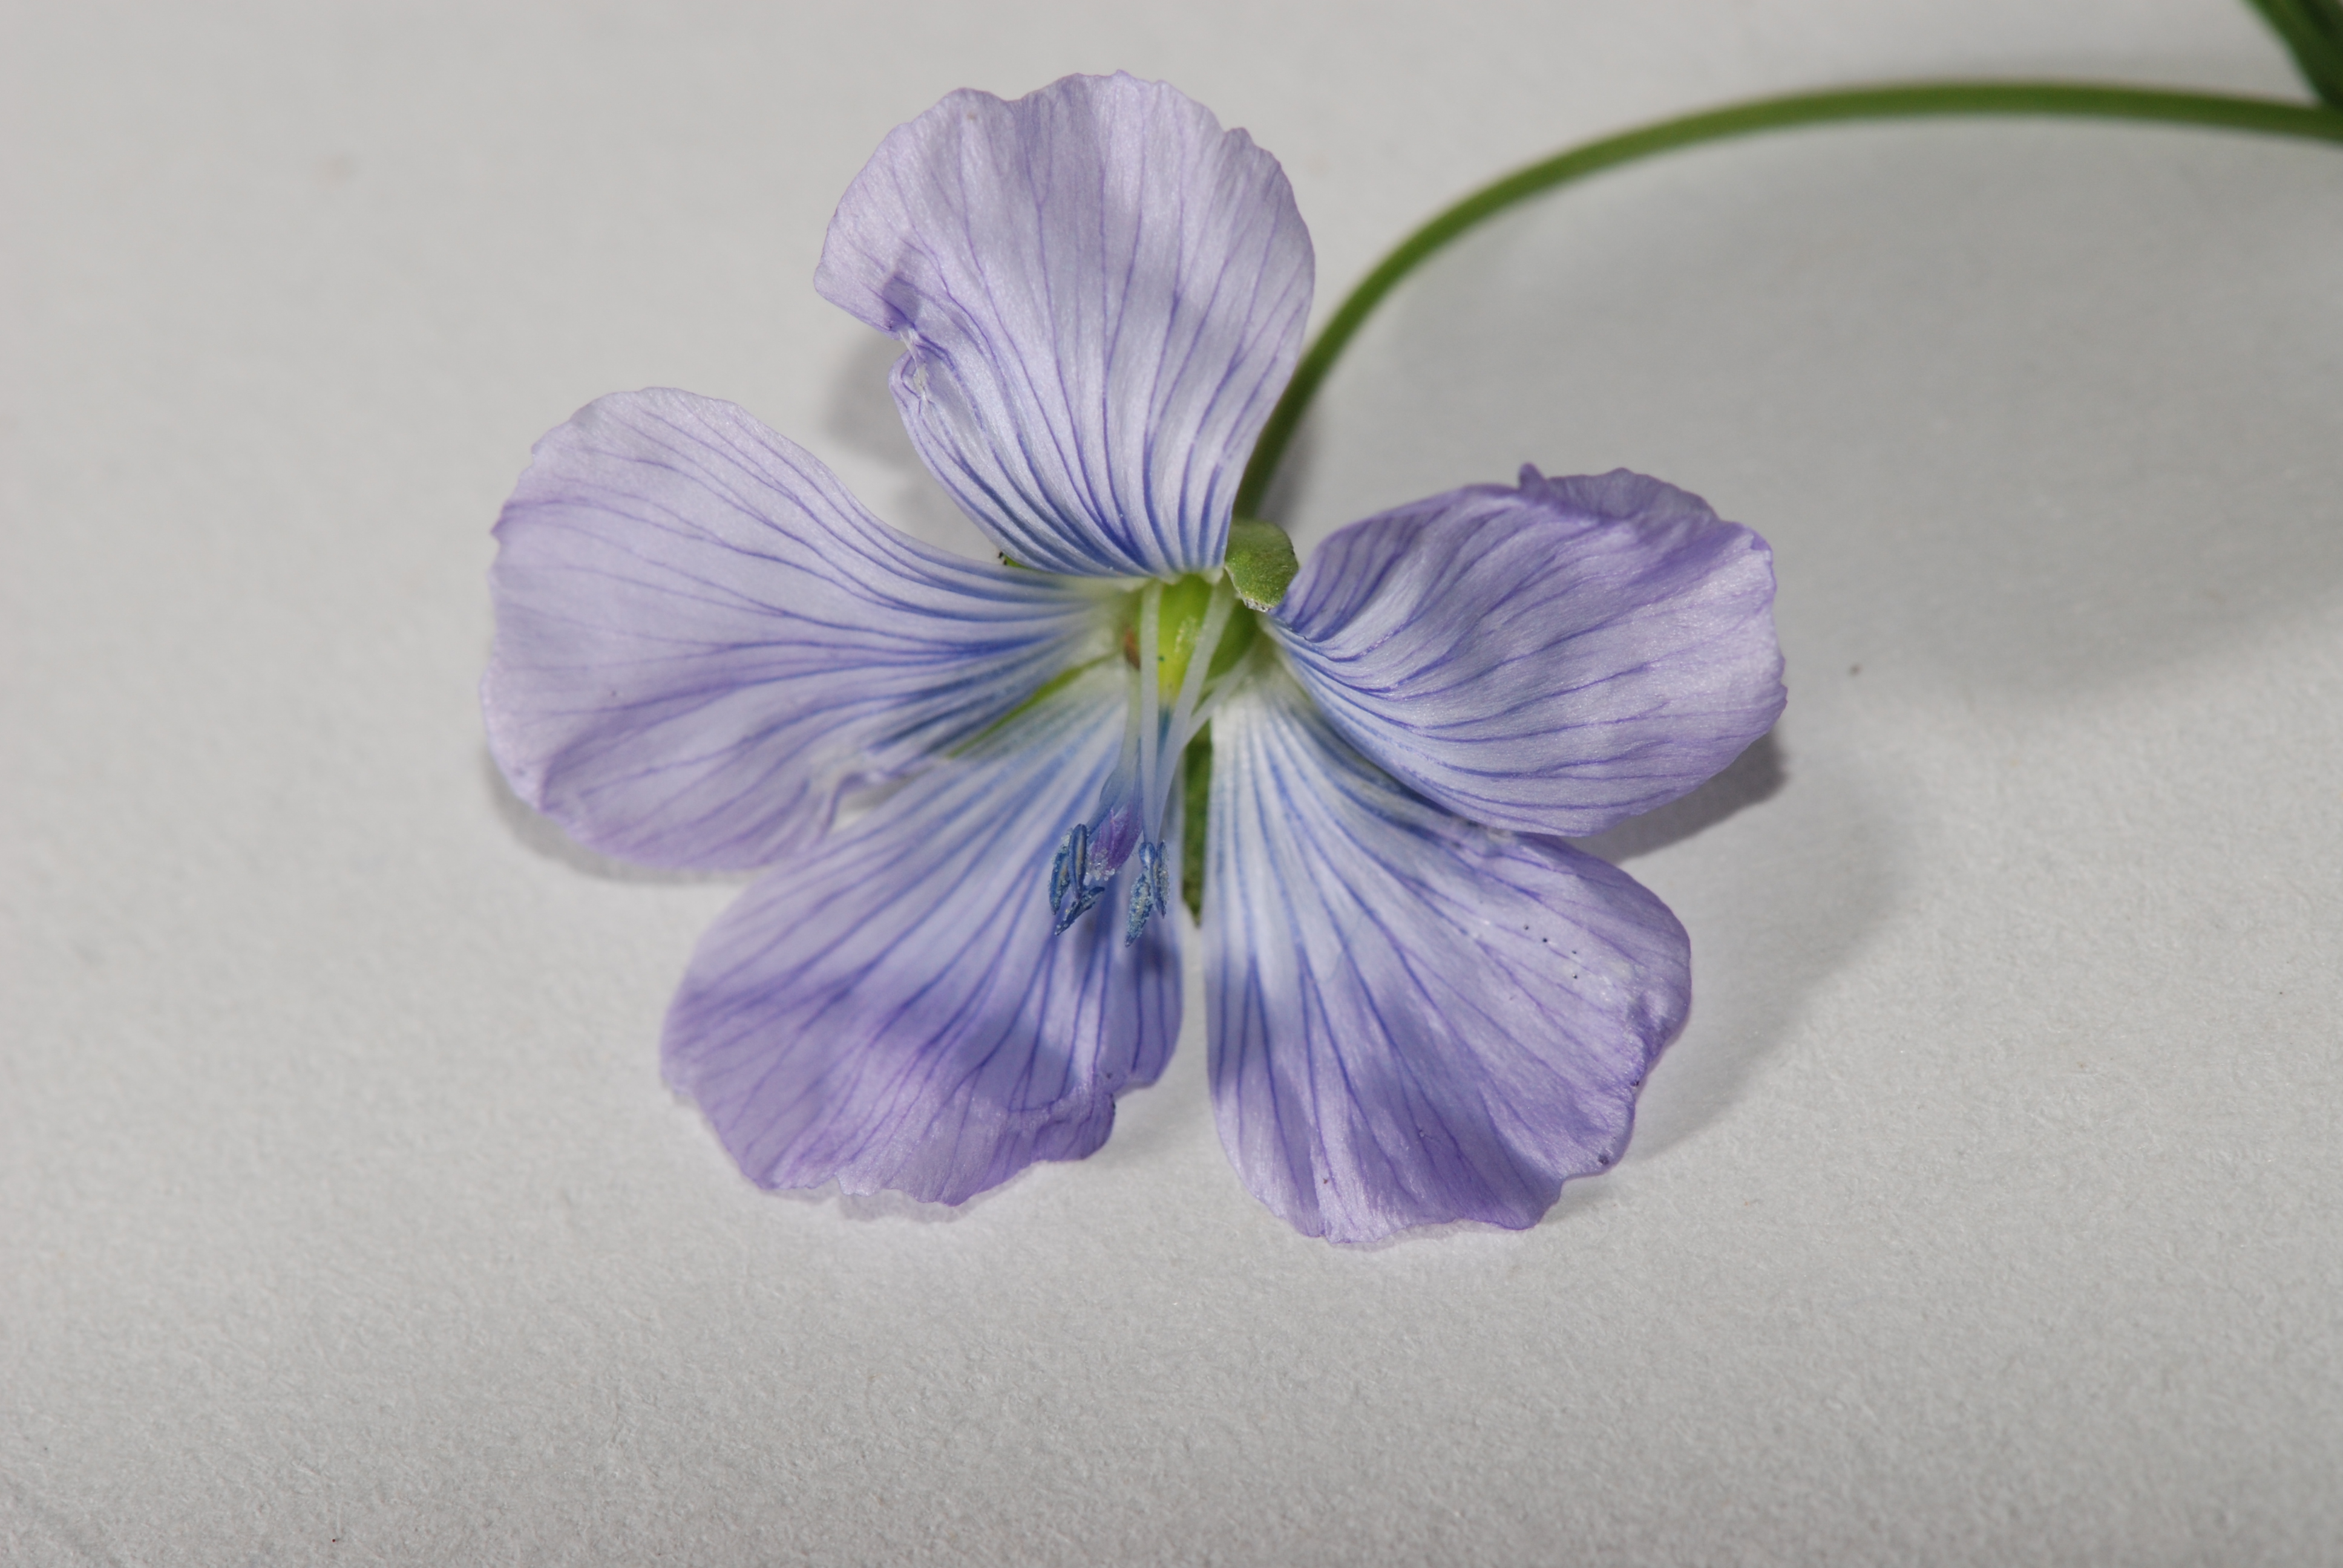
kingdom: Plantae
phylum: Tracheophyta
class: Magnoliopsida
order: Malpighiales
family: Linaceae
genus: Linum
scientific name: Linum usitatissimum
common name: Flax
